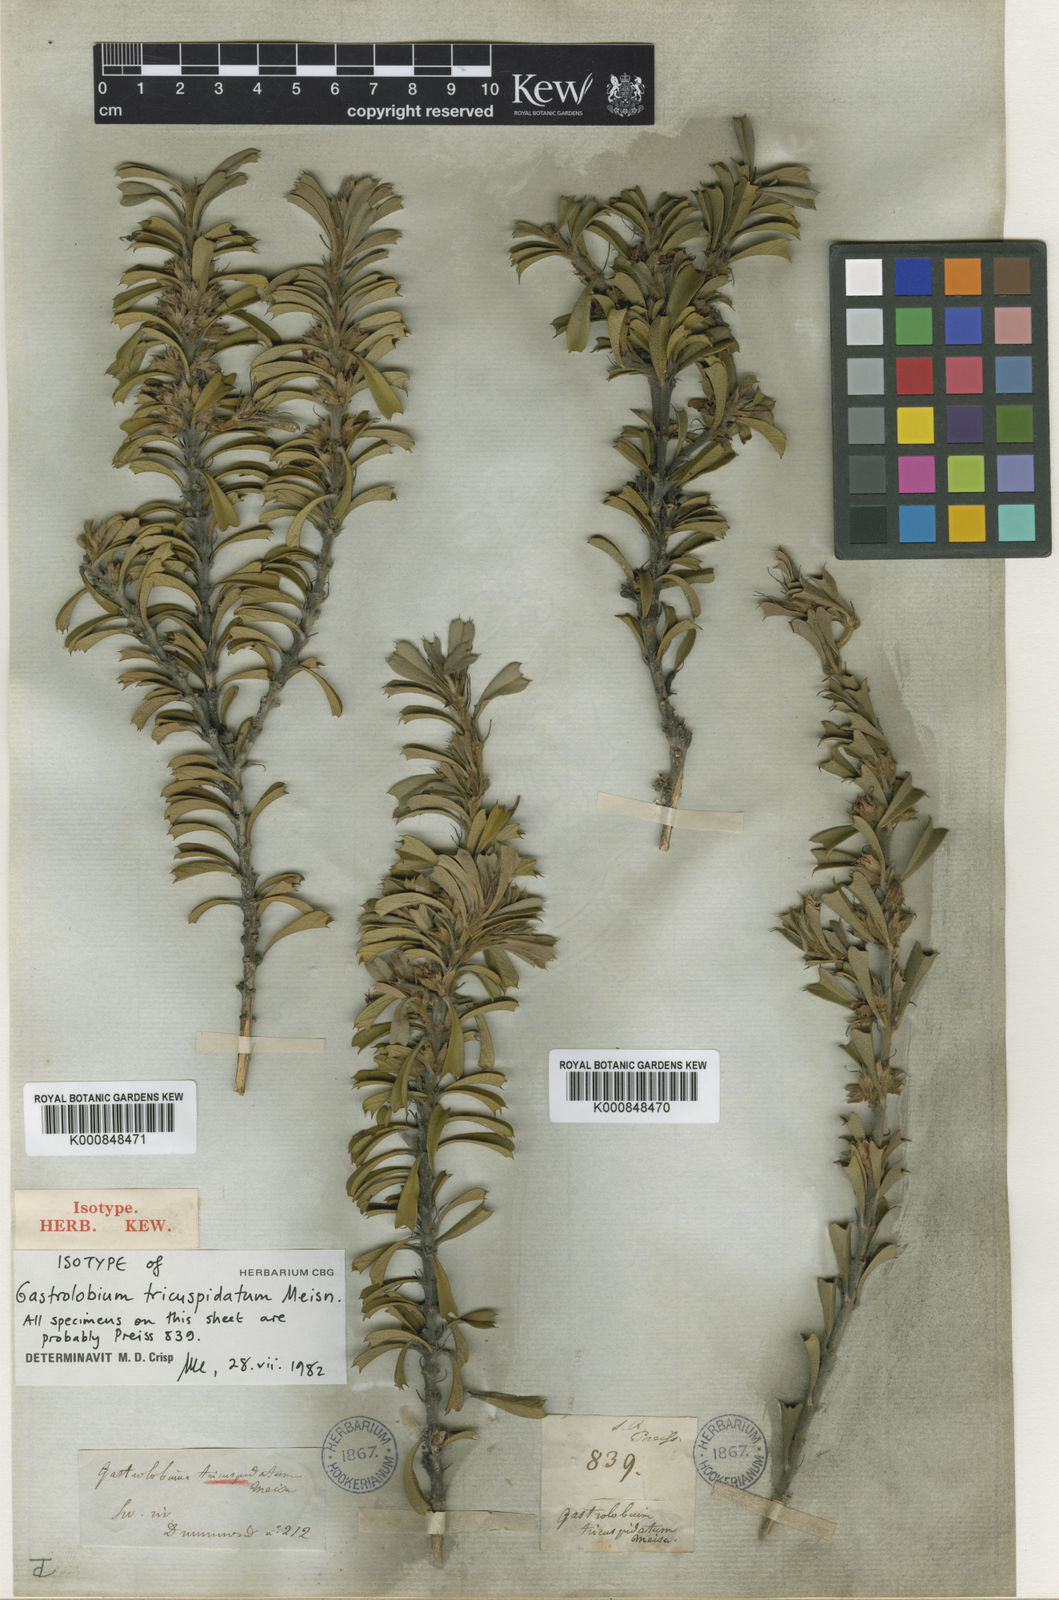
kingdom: Plantae
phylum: Tracheophyta
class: Magnoliopsida
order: Fabales
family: Fabaceae
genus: Gastrolobium
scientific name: Gastrolobium tricuspidatum
